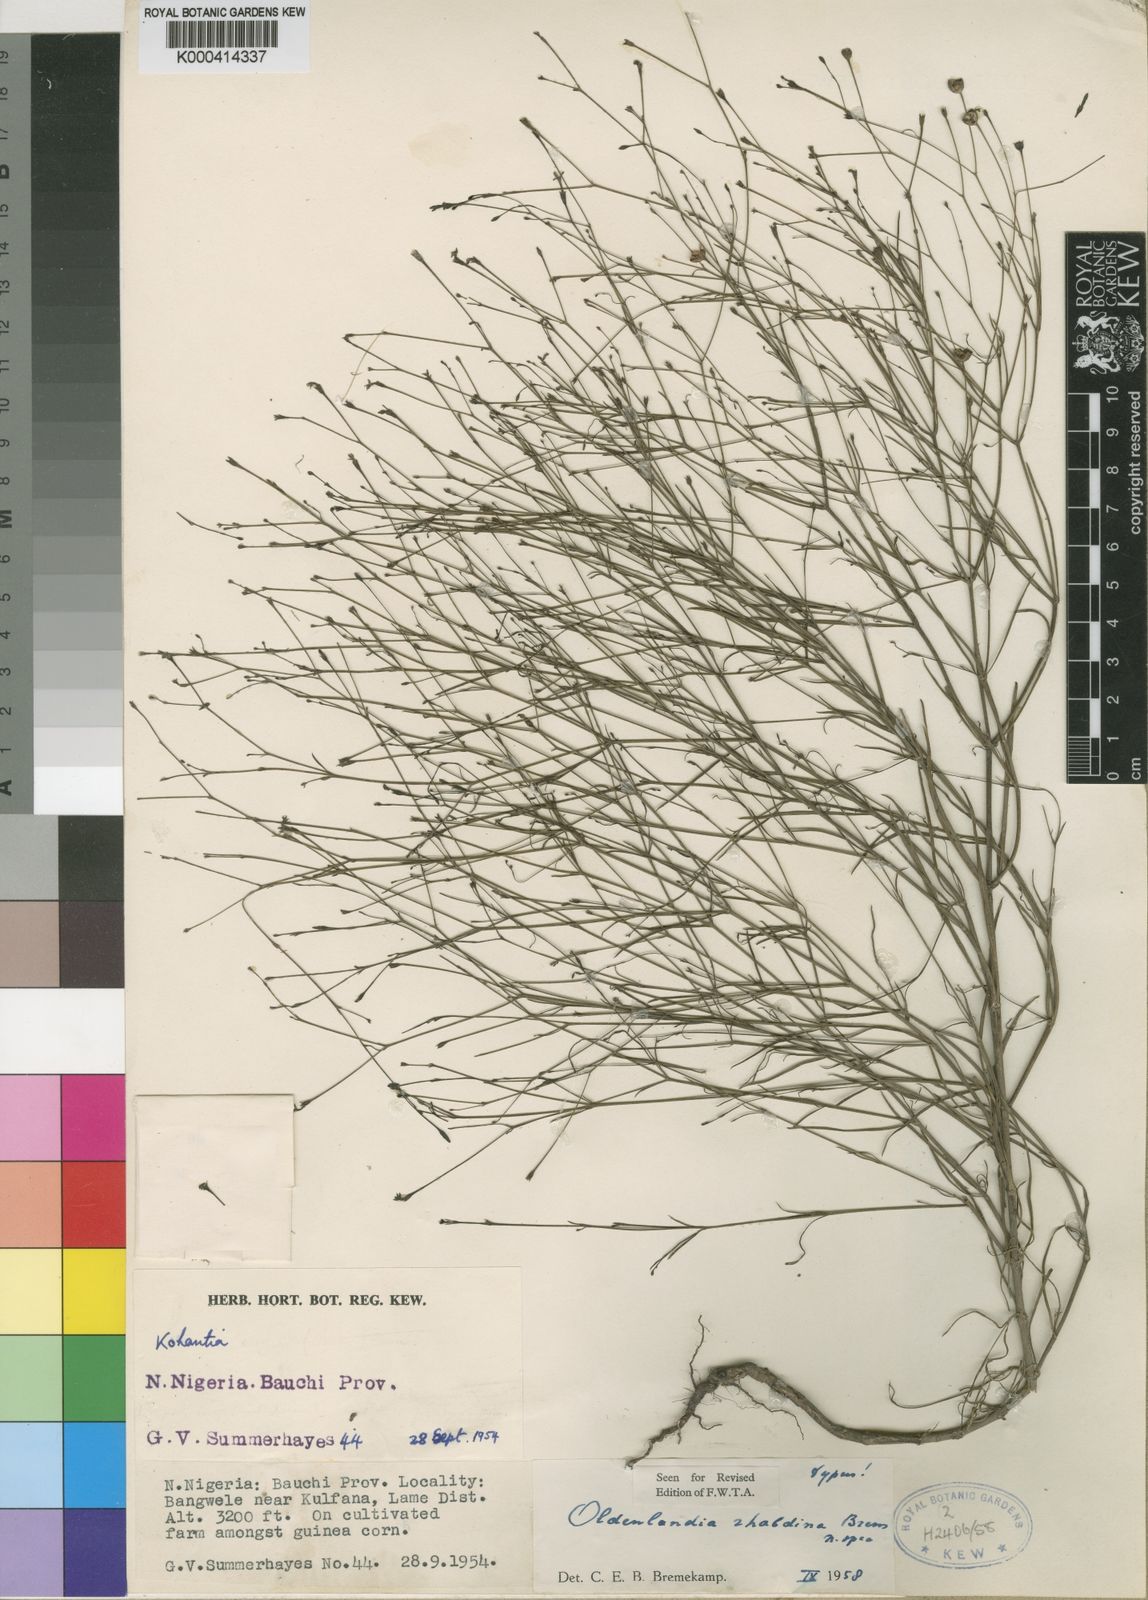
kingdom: Plantae
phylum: Tracheophyta
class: Magnoliopsida
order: Gentianales
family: Rubiaceae
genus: Oldenlandia
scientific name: Oldenlandia rhabdina
